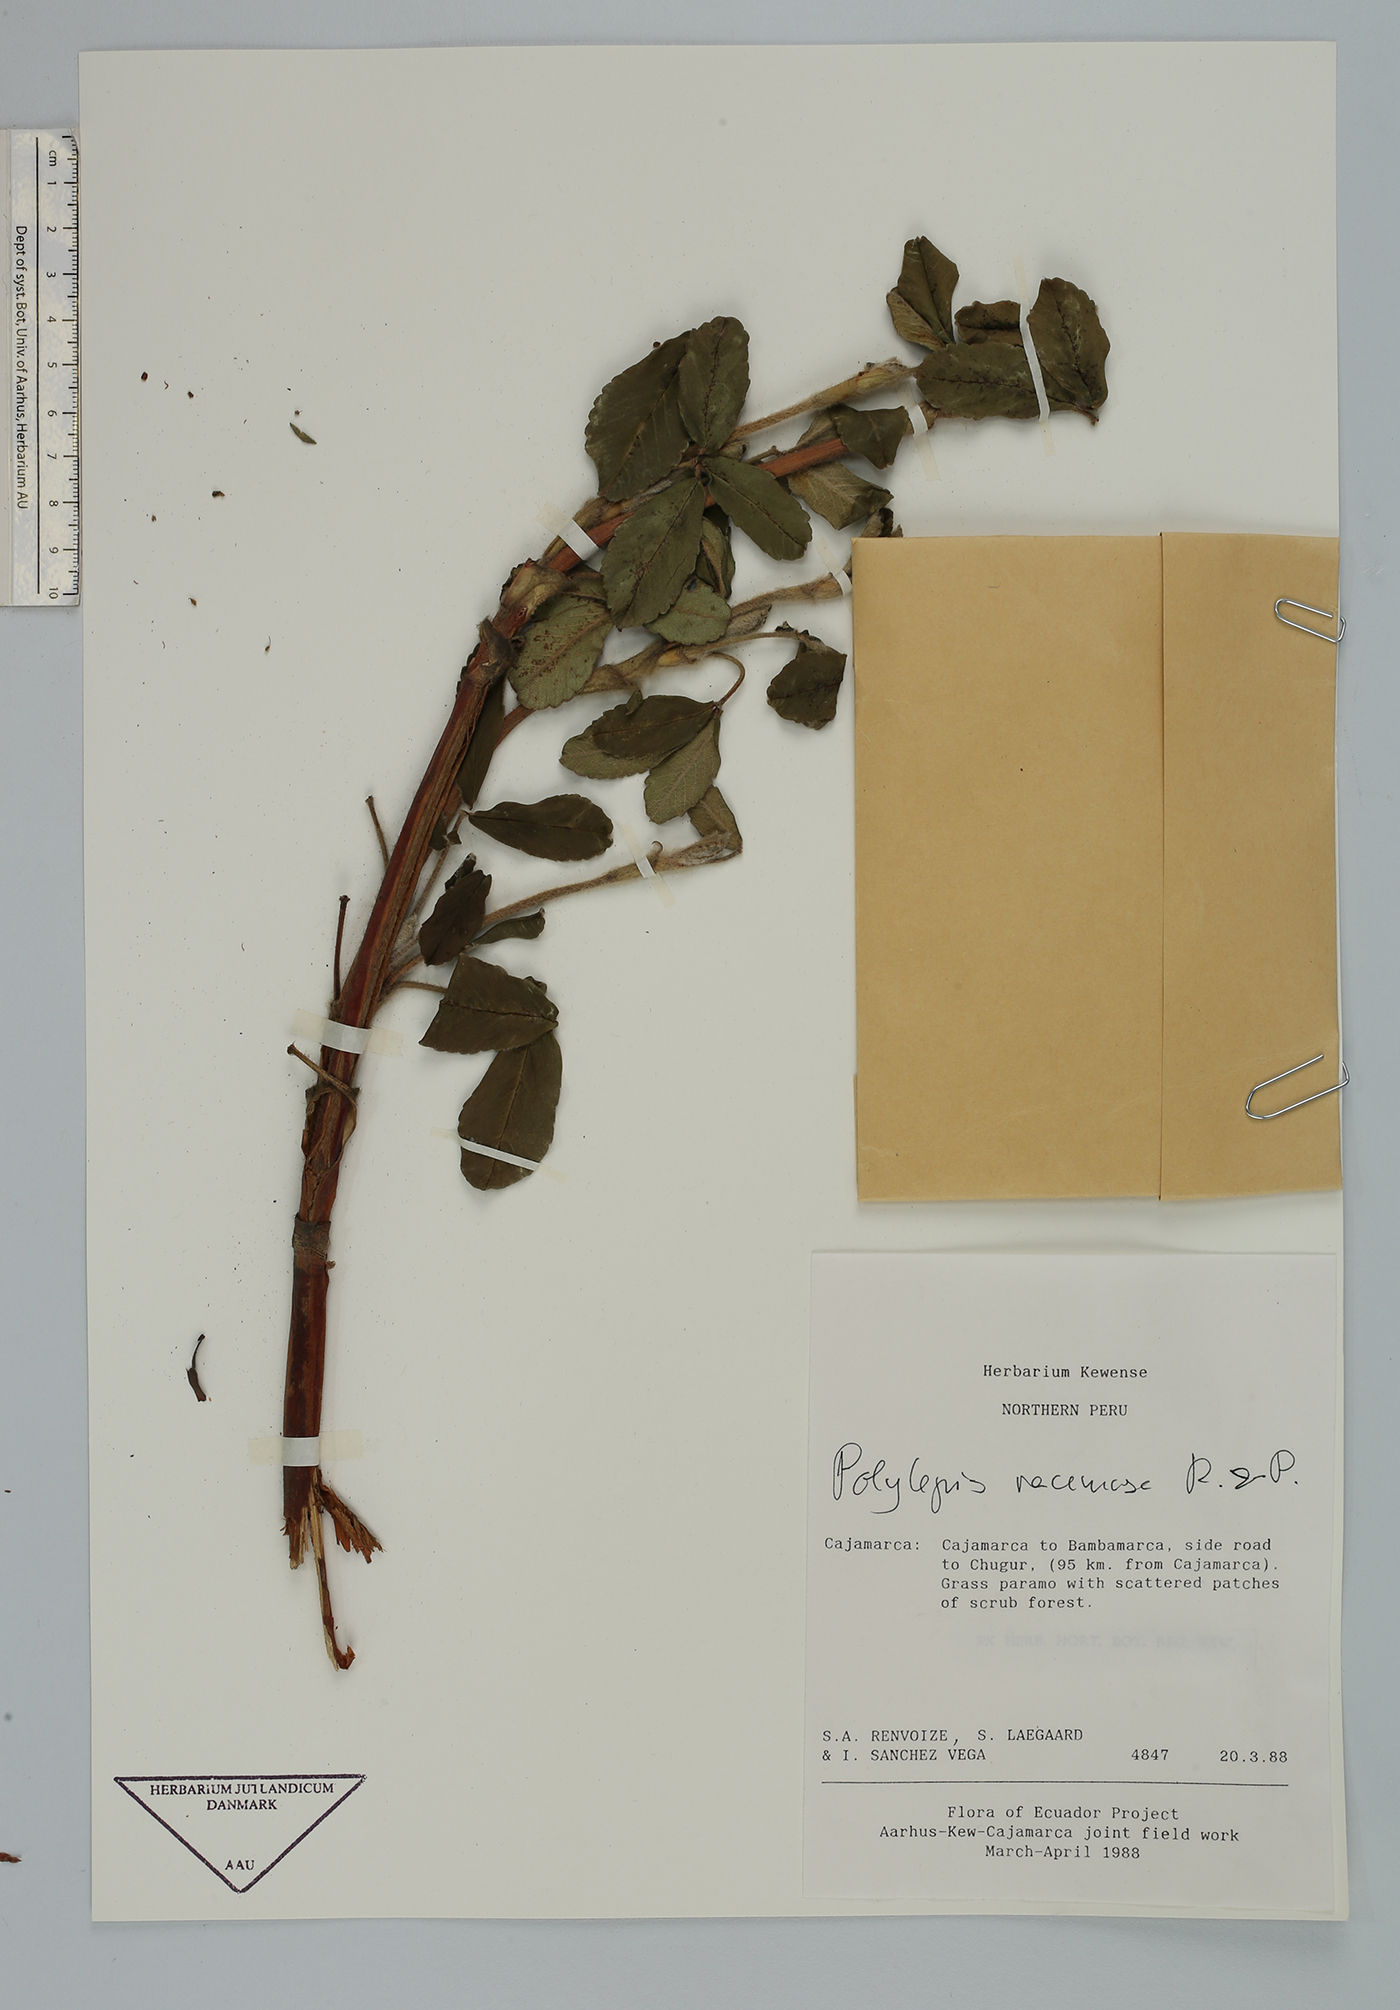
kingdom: Plantae
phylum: Tracheophyta
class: Magnoliopsida
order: Rosales
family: Rosaceae
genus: Polylepis
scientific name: Polylepis racemosa
